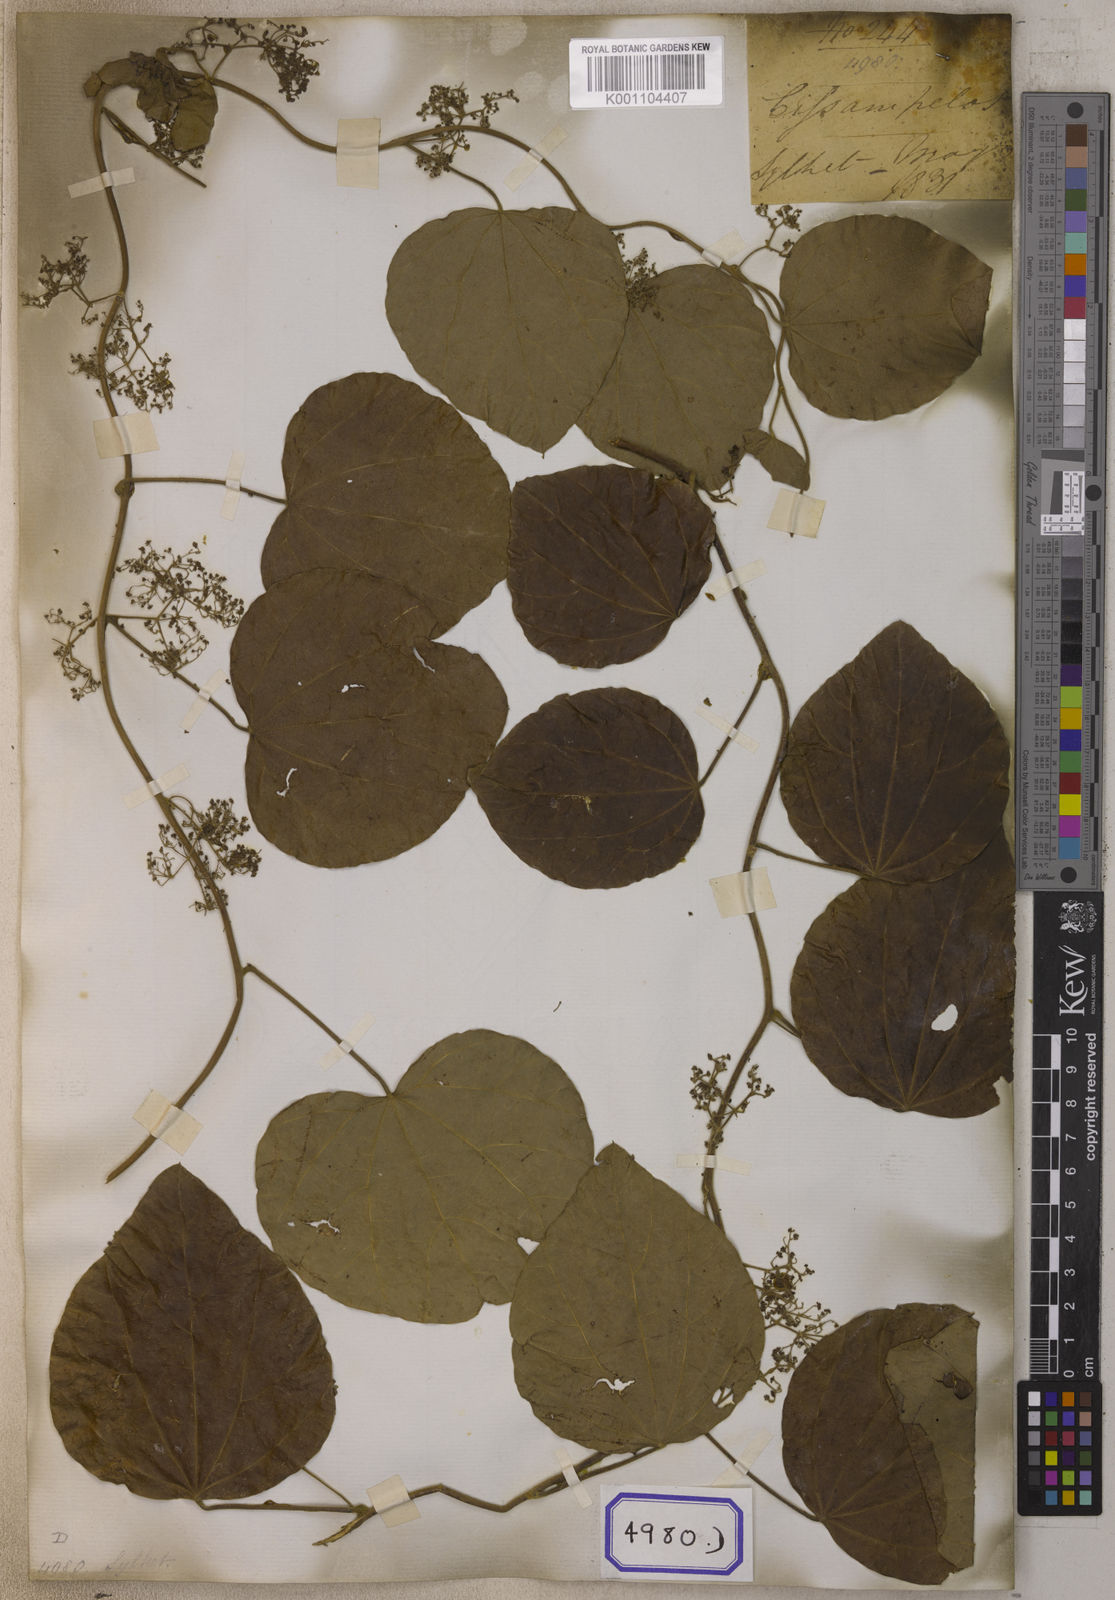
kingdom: Plantae
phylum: Tracheophyta
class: Magnoliopsida
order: Ranunculales
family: Menispermaceae
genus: Cissampelos
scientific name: Cissampelos
